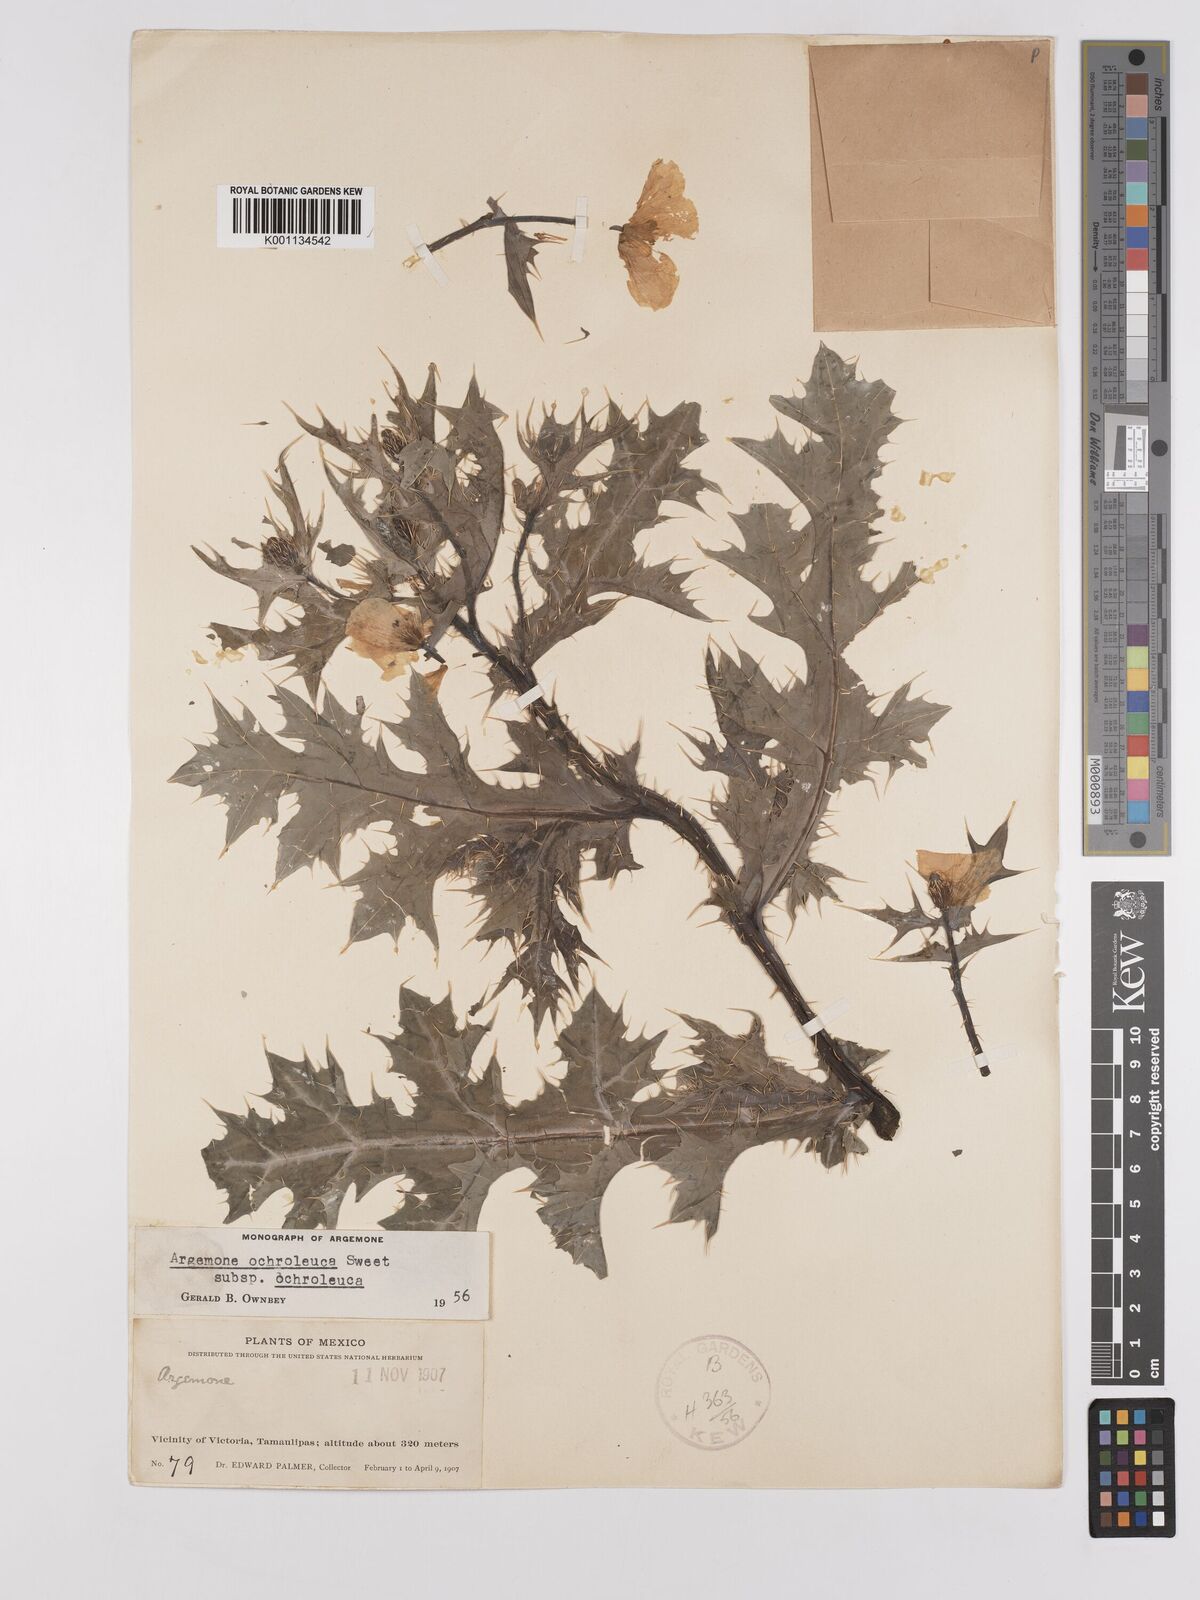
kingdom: Plantae
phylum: Tracheophyta
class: Magnoliopsida
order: Ranunculales
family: Papaveraceae
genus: Argemone
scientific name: Argemone ochroleuca
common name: White-flower mexican-poppy
